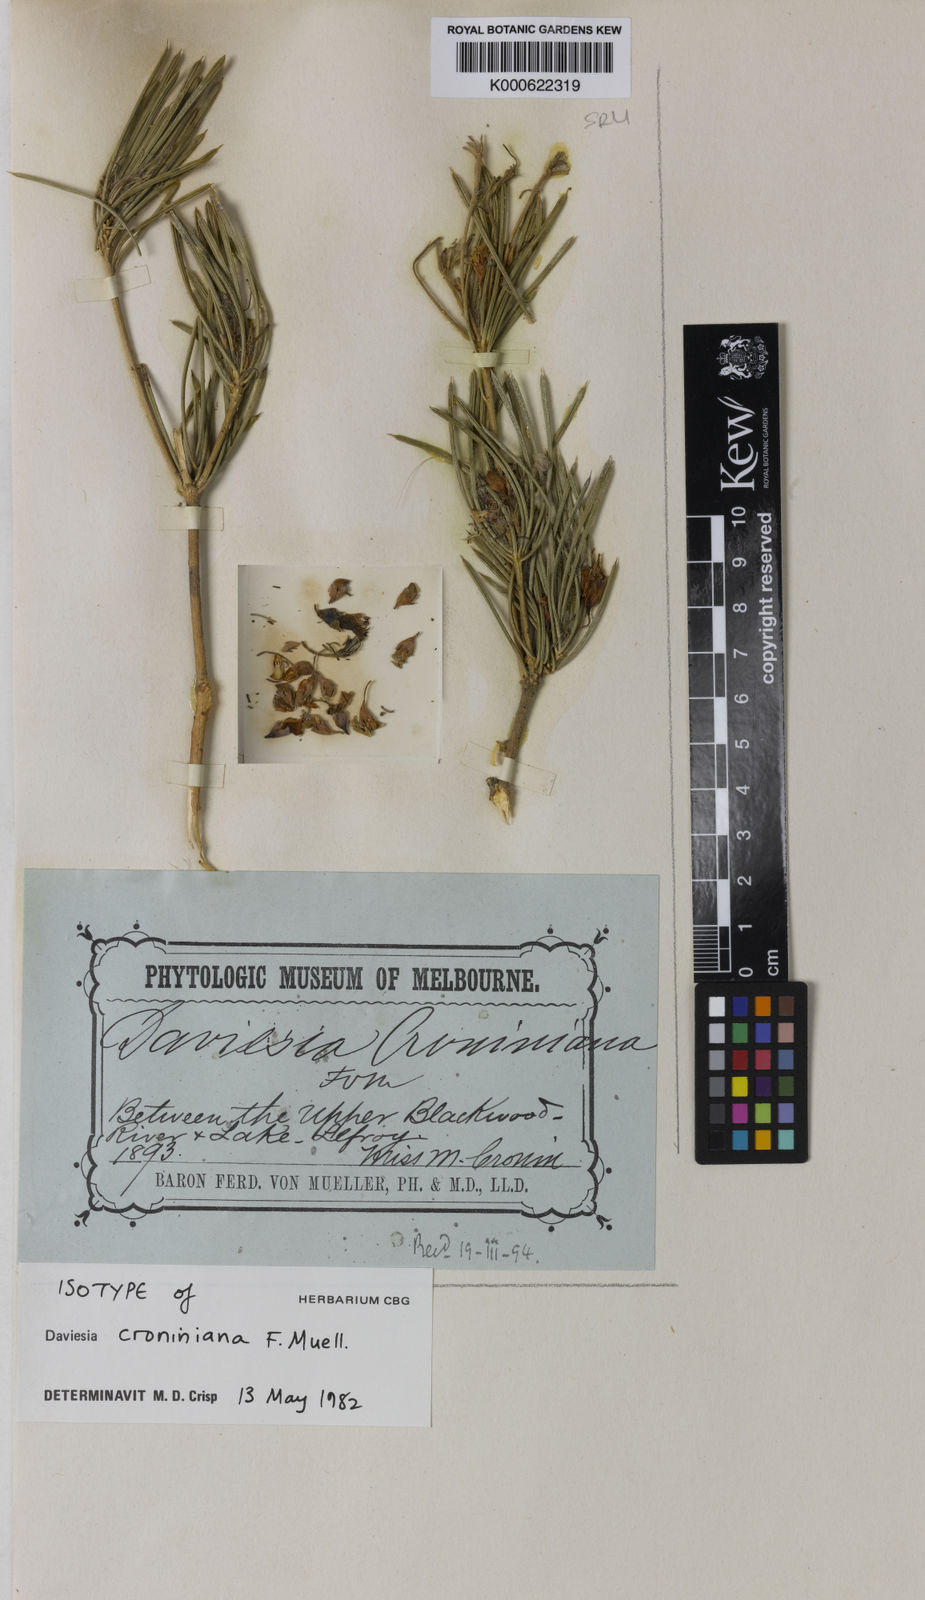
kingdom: Plantae
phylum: Tracheophyta
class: Magnoliopsida
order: Fabales
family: Fabaceae
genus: Daviesia
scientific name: Daviesia croniniana
